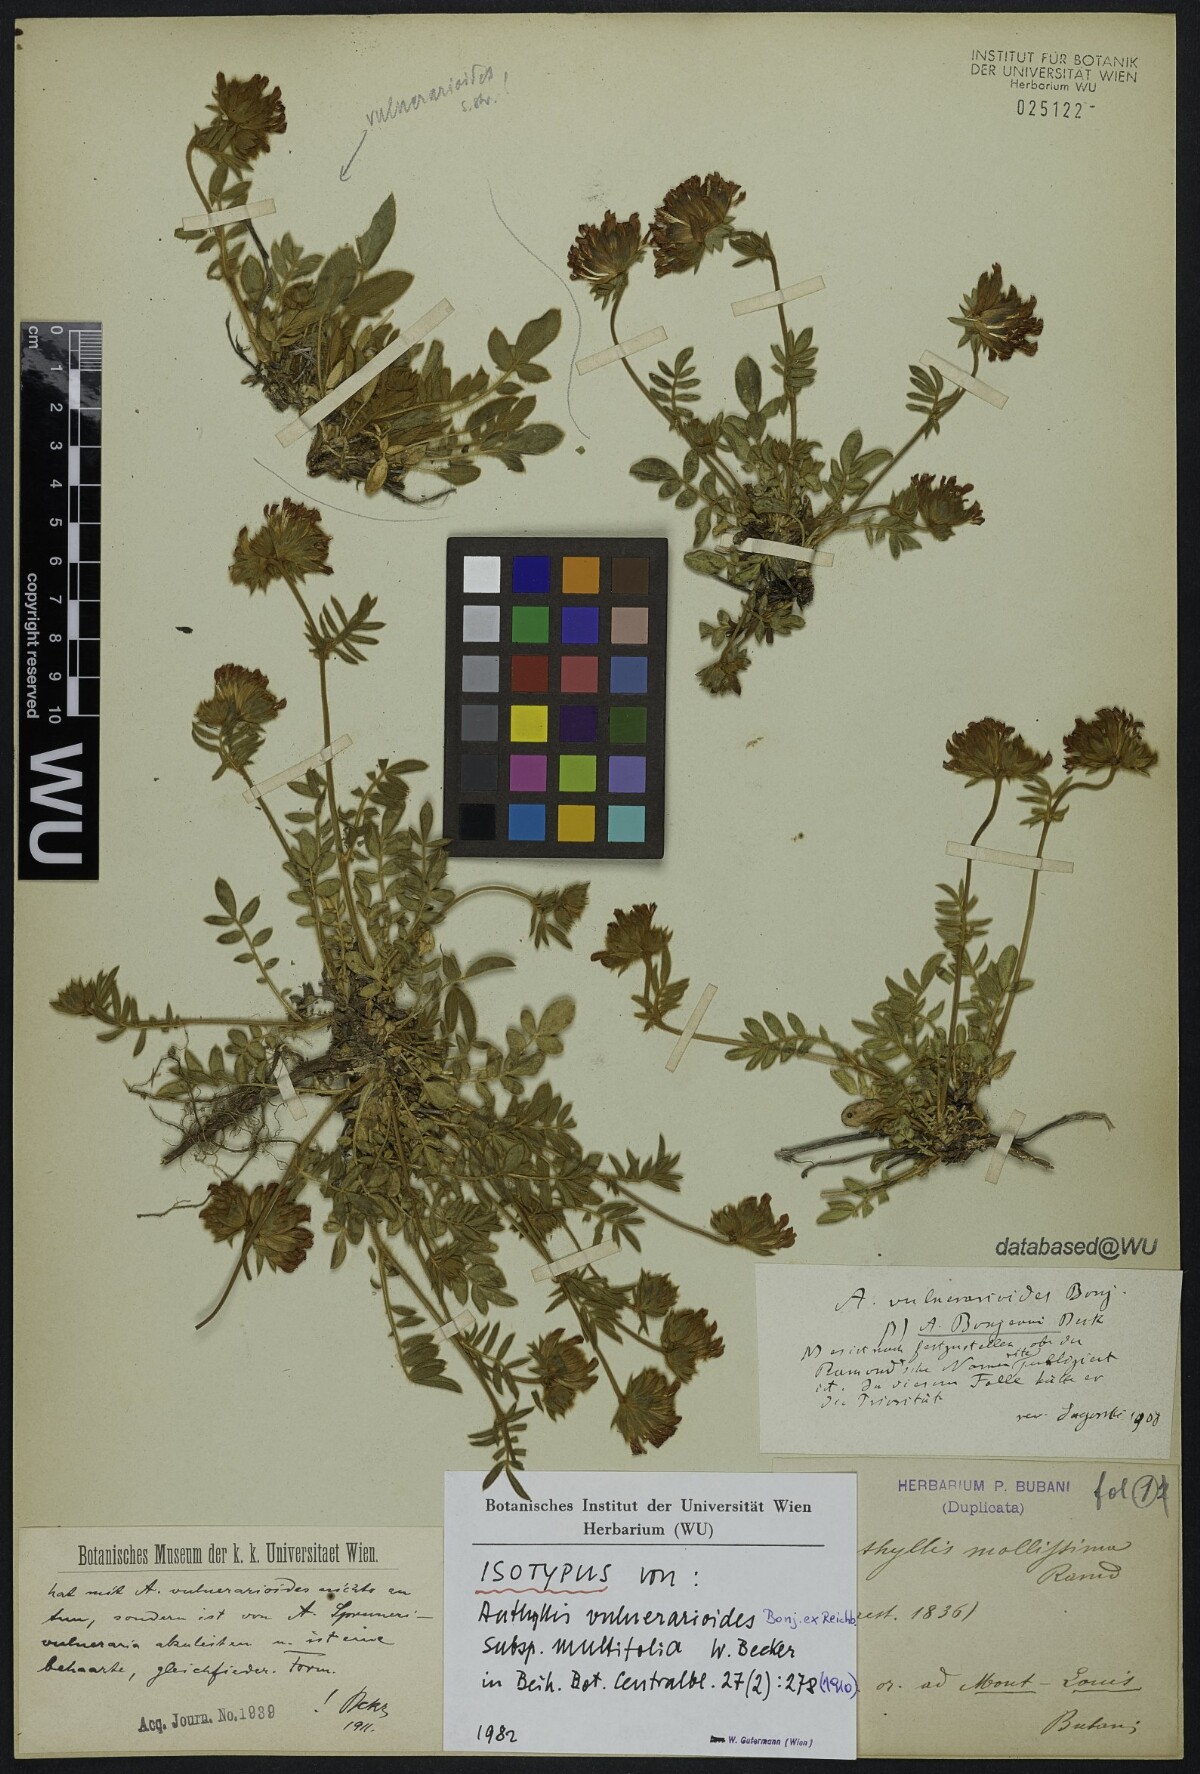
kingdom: Plantae
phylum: Tracheophyta
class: Magnoliopsida
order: Fabales
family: Fabaceae
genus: Anthyllis
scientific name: Anthyllis vulneraria
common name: Kidney vetch
